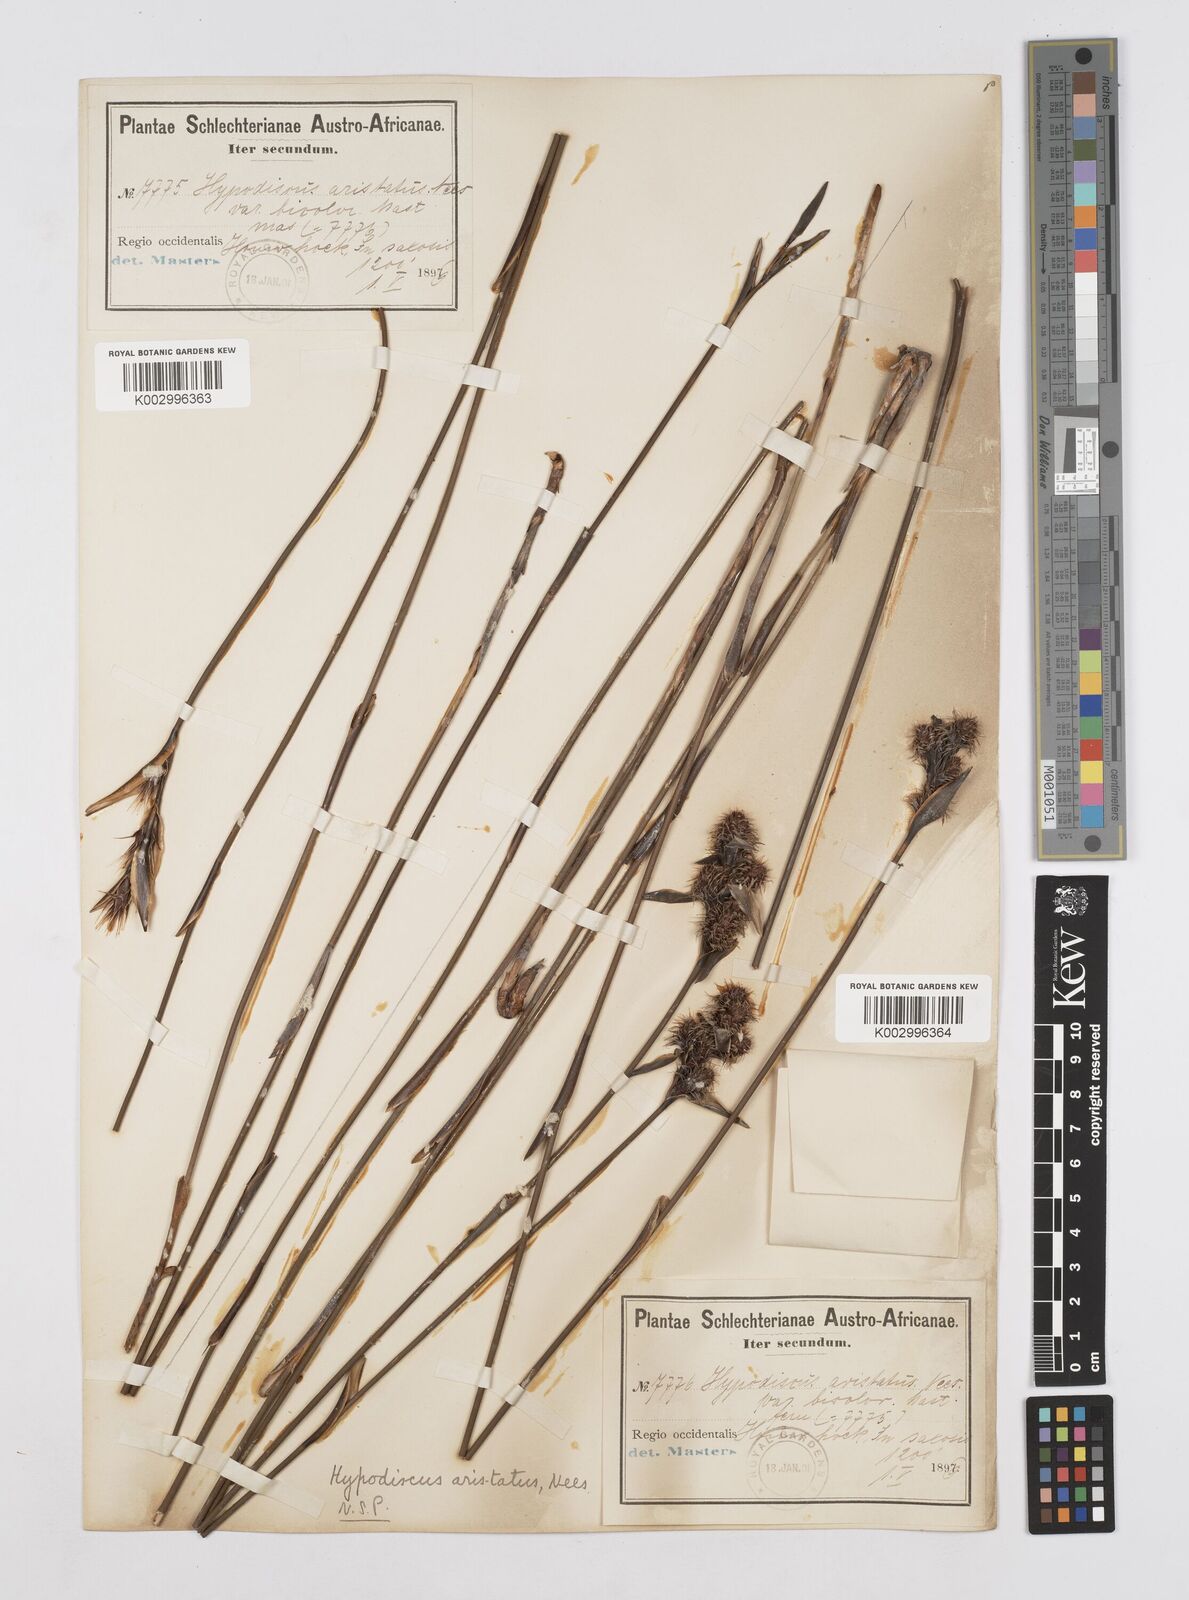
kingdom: Plantae
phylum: Tracheophyta
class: Liliopsida
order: Poales
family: Restionaceae
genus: Hypodiscus
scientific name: Hypodiscus aristatus
